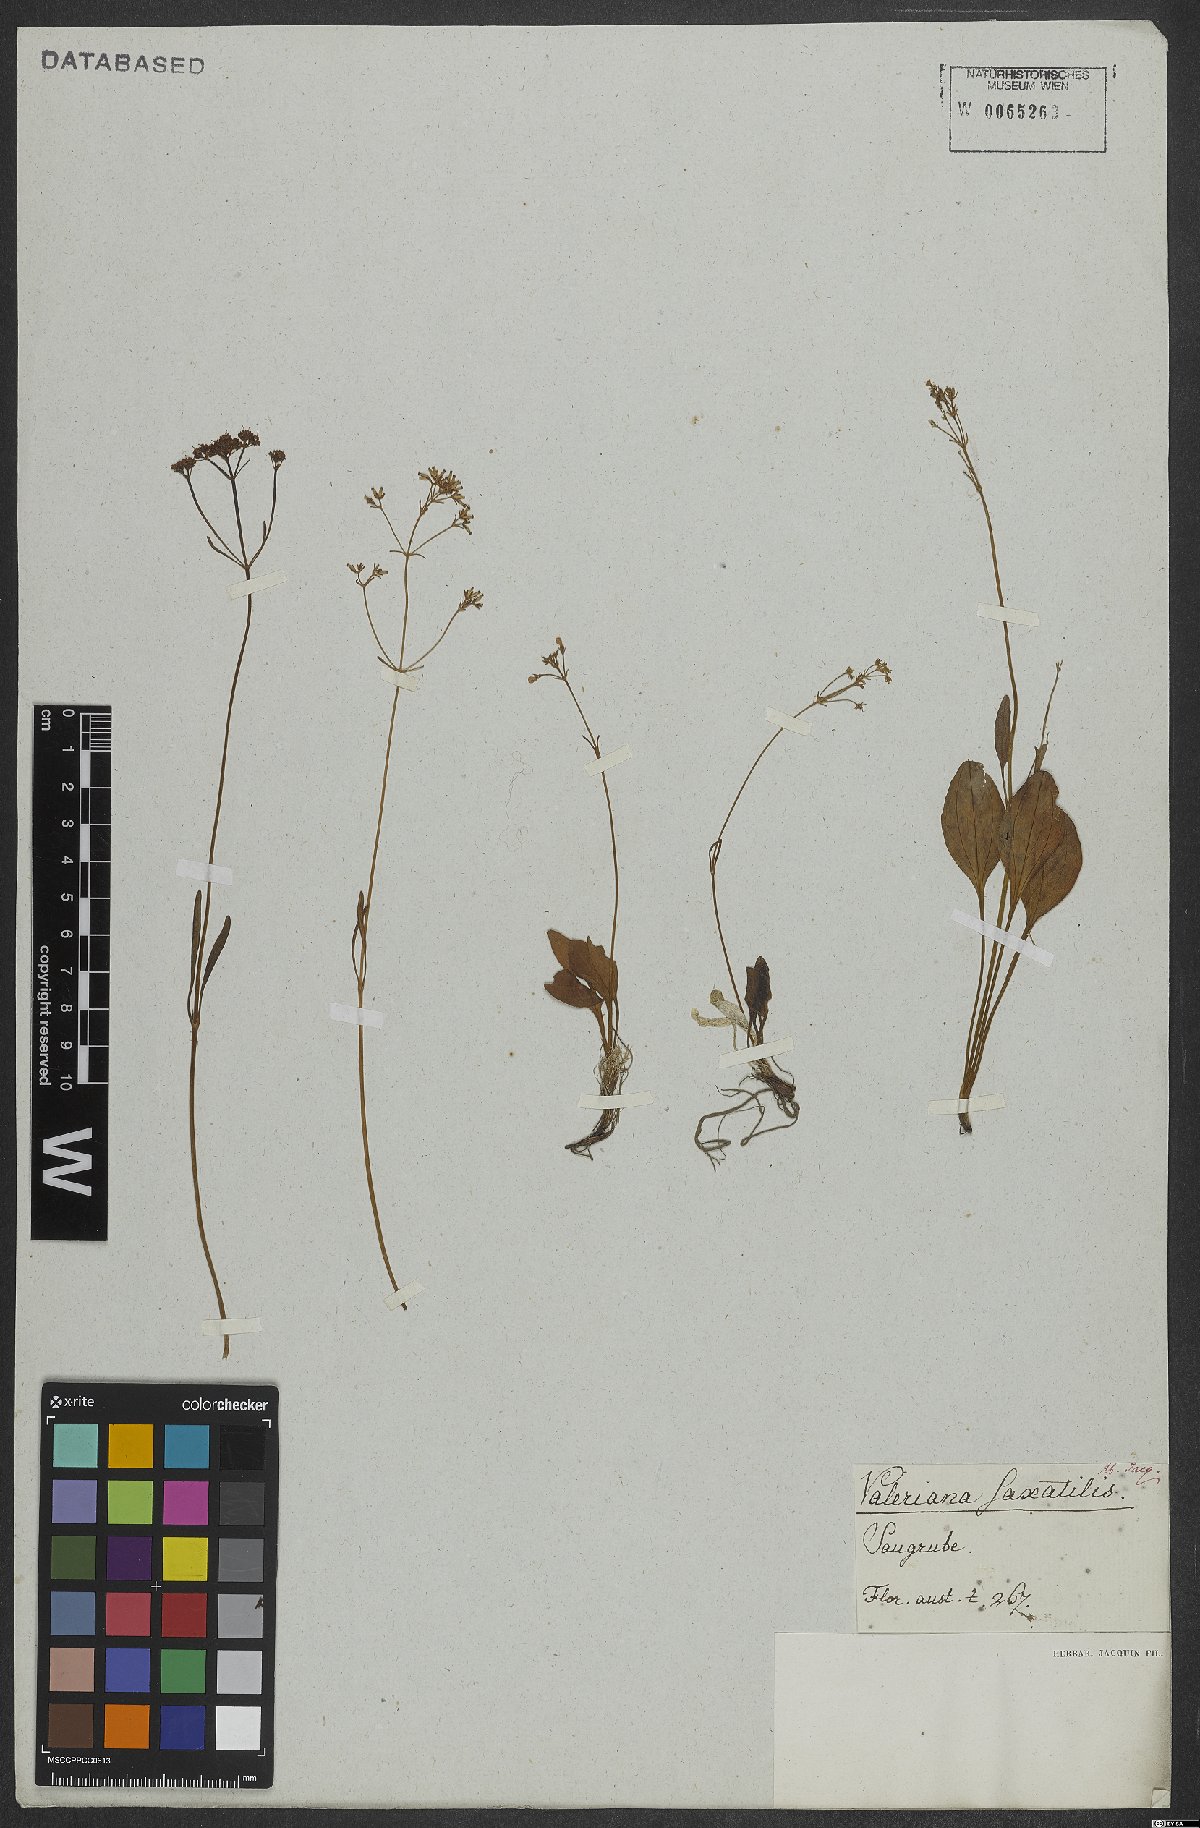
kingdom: Plantae
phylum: Tracheophyta
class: Magnoliopsida
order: Dipsacales
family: Caprifoliaceae
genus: Valeriana
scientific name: Valeriana saxatilis
